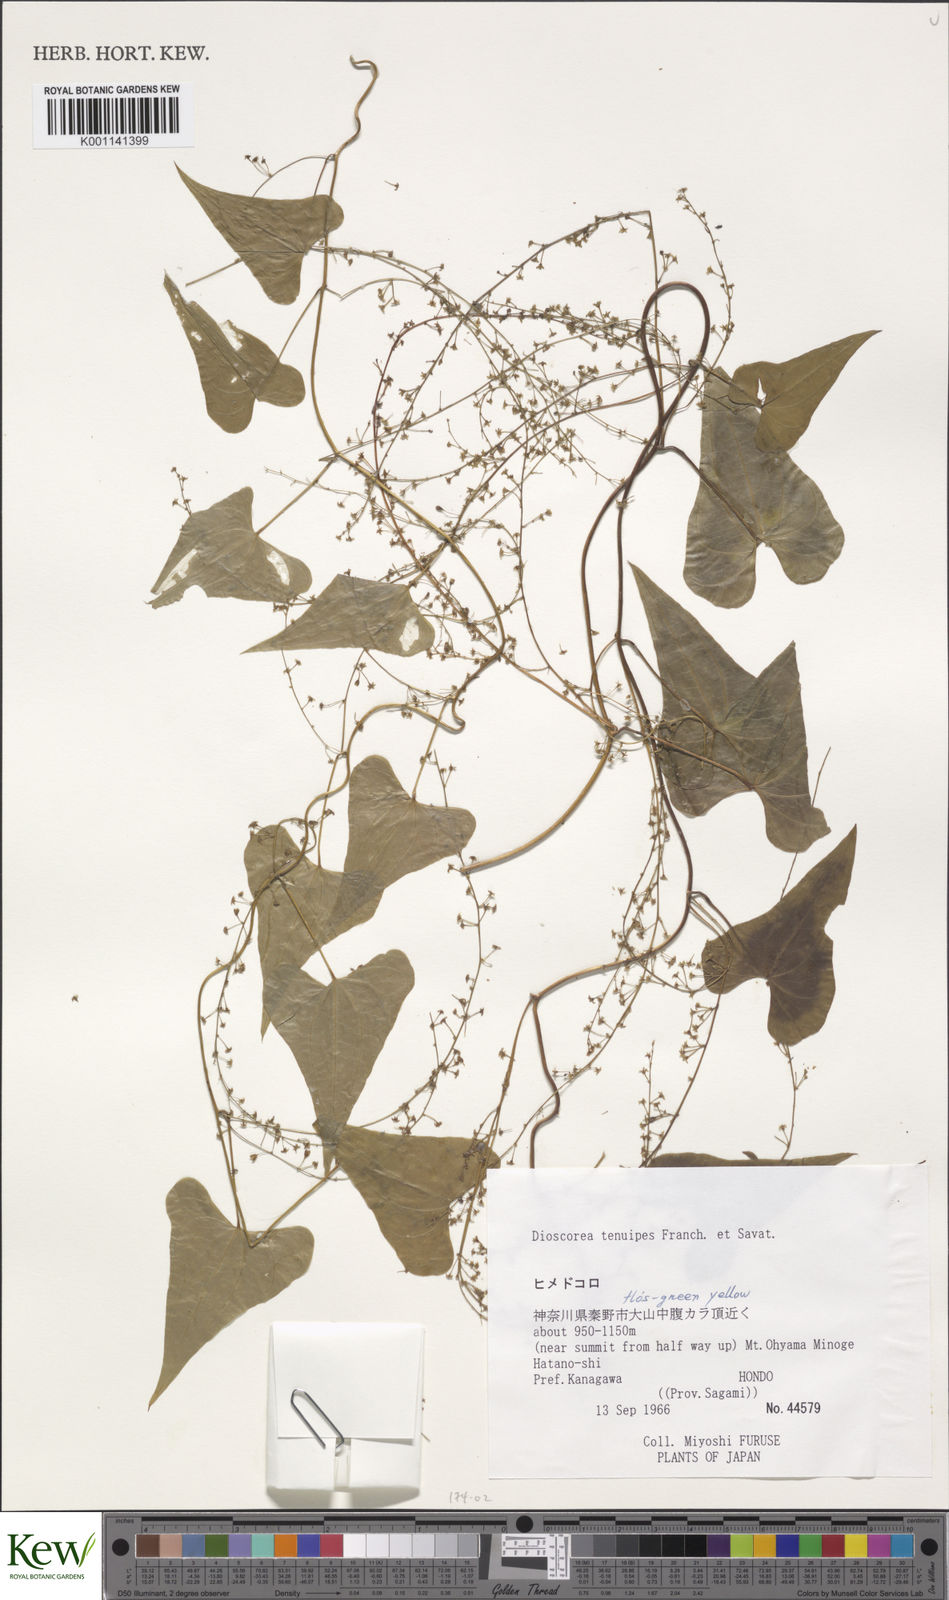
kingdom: Plantae
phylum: Tracheophyta
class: Liliopsida
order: Dioscoreales
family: Dioscoreaceae
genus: Dioscorea
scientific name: Dioscorea tenuipes
